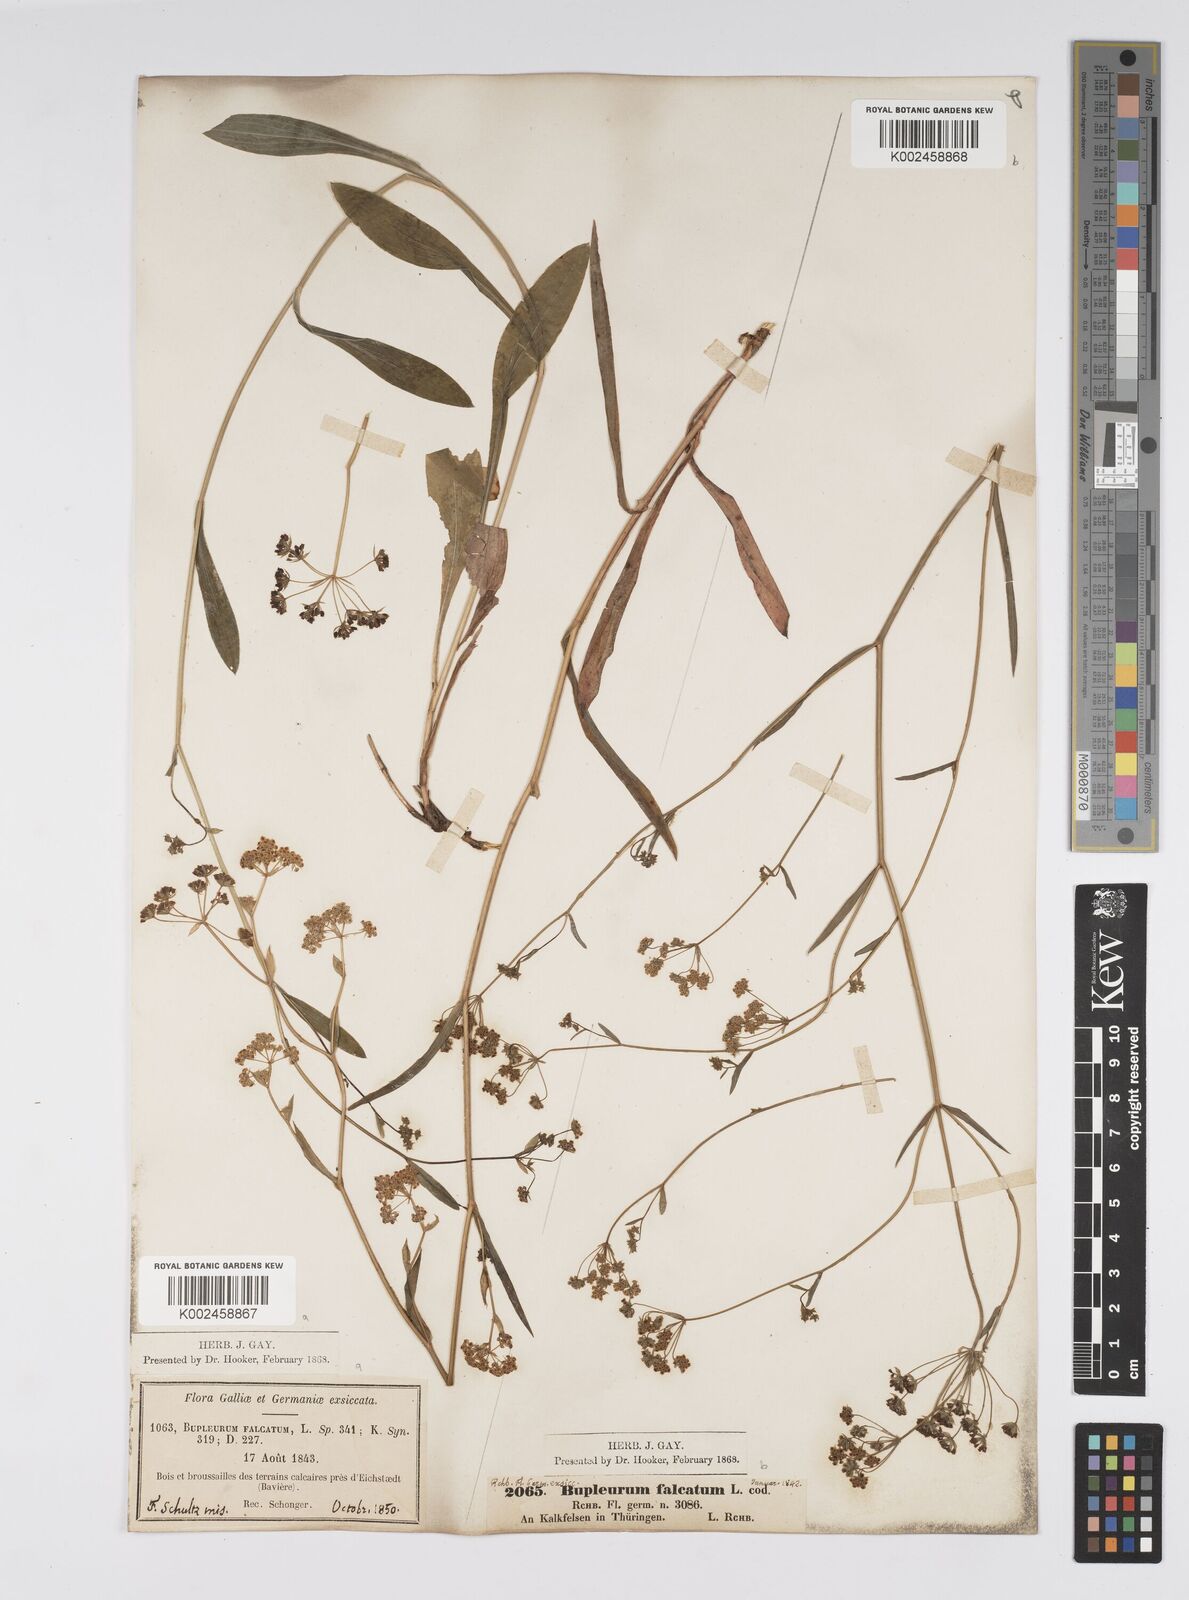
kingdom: Plantae
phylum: Tracheophyta
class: Magnoliopsida
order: Apiales
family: Apiaceae
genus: Bupleurum
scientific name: Bupleurum falcatum
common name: Sickle-leaved hare's-ear
